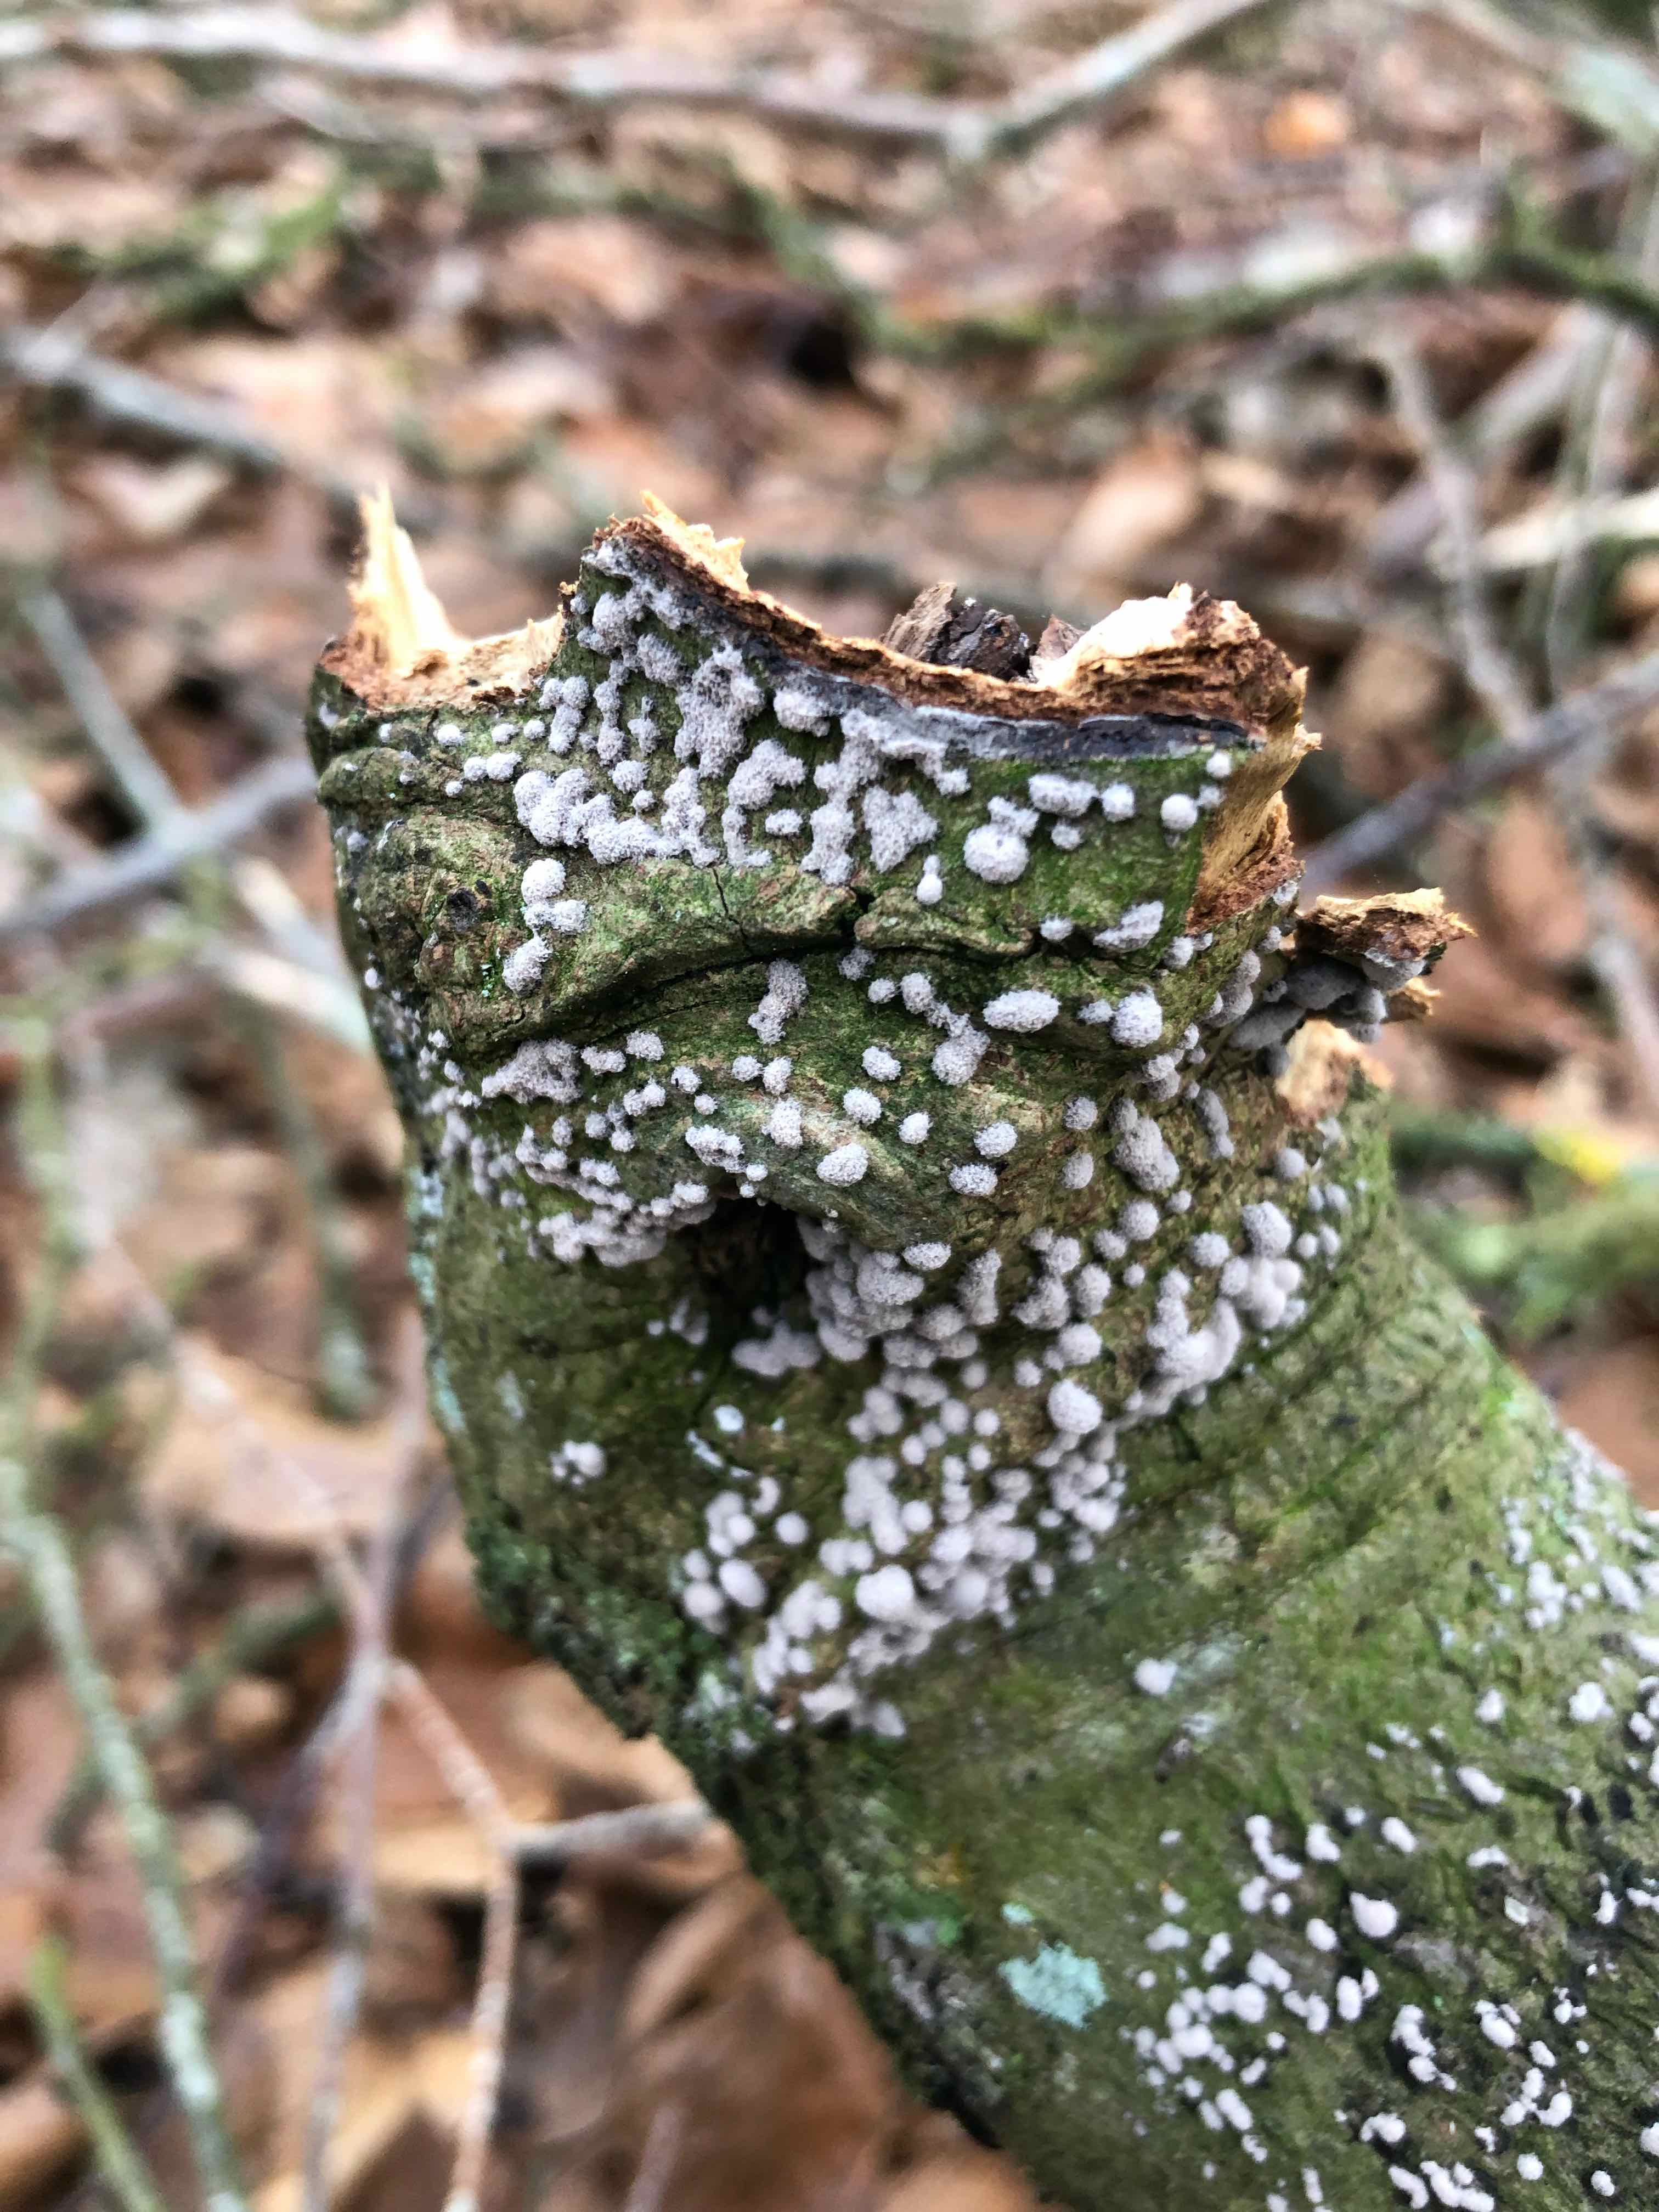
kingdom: Fungi
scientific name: Fungi
